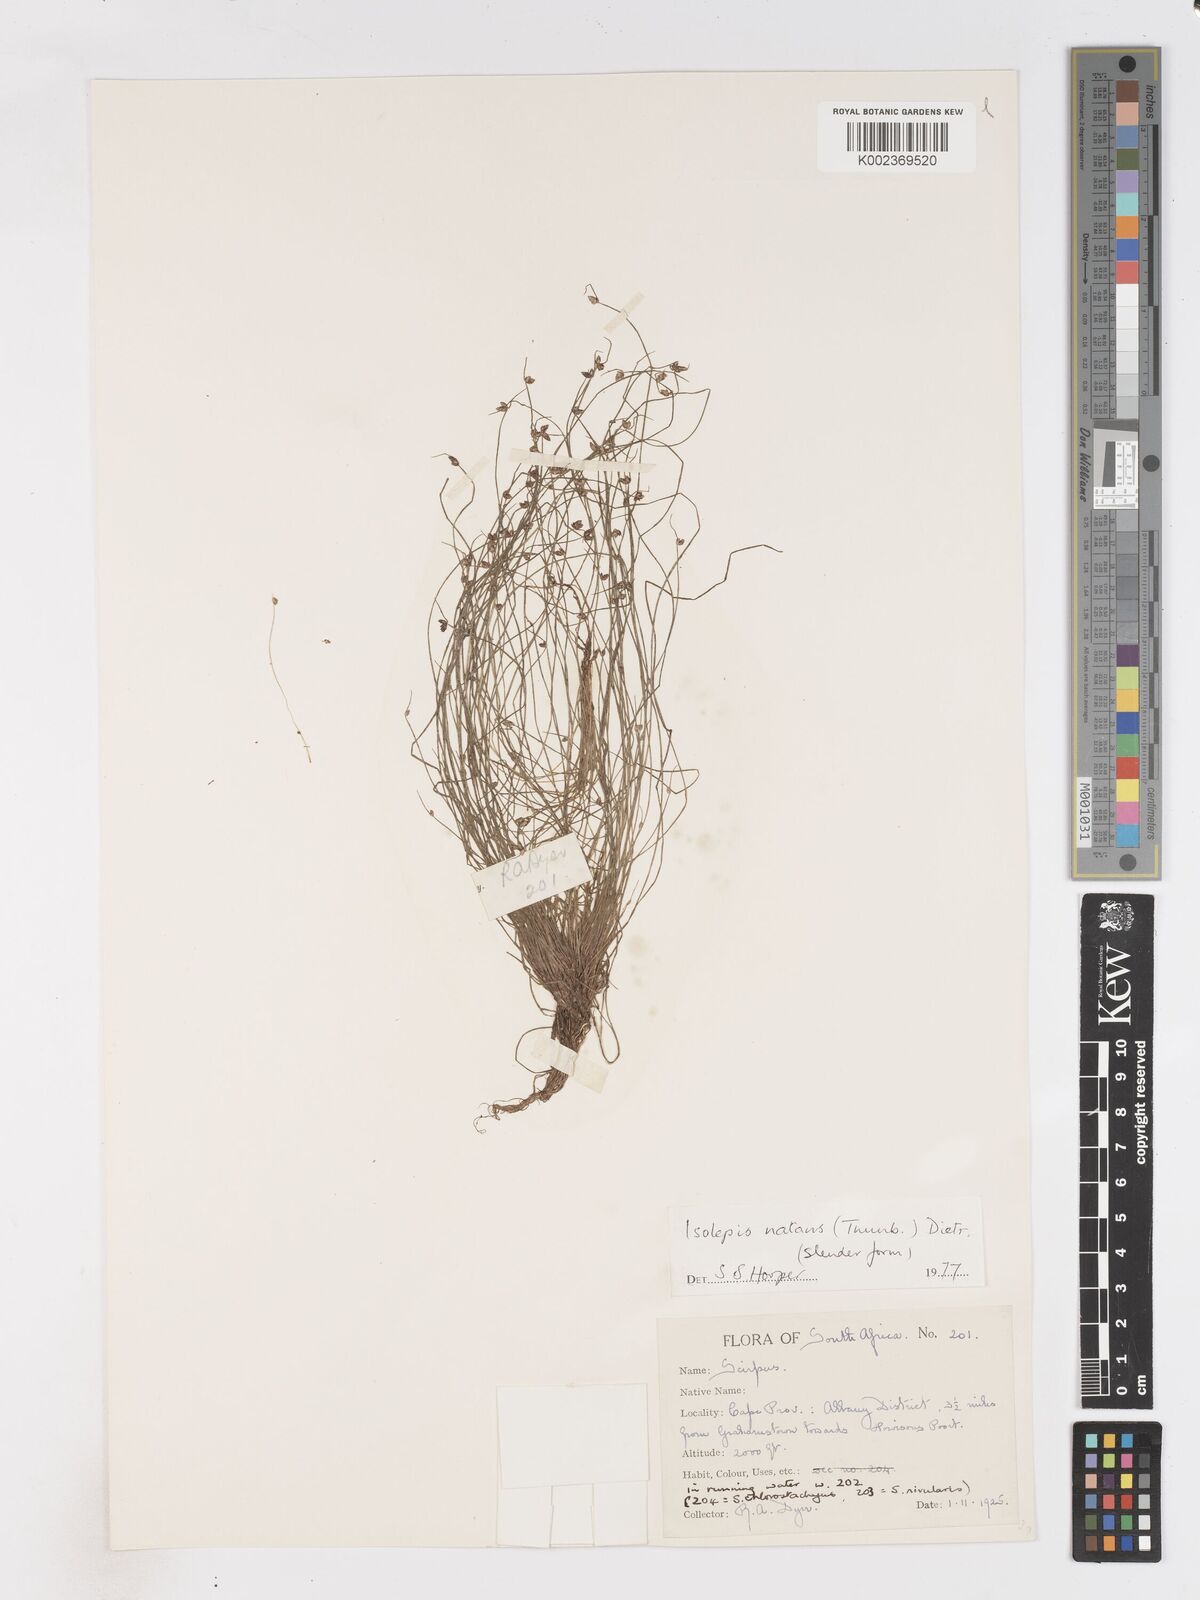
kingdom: Plantae
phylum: Tracheophyta
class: Liliopsida
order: Poales
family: Cyperaceae
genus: Isolepis
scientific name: Isolepis natans
